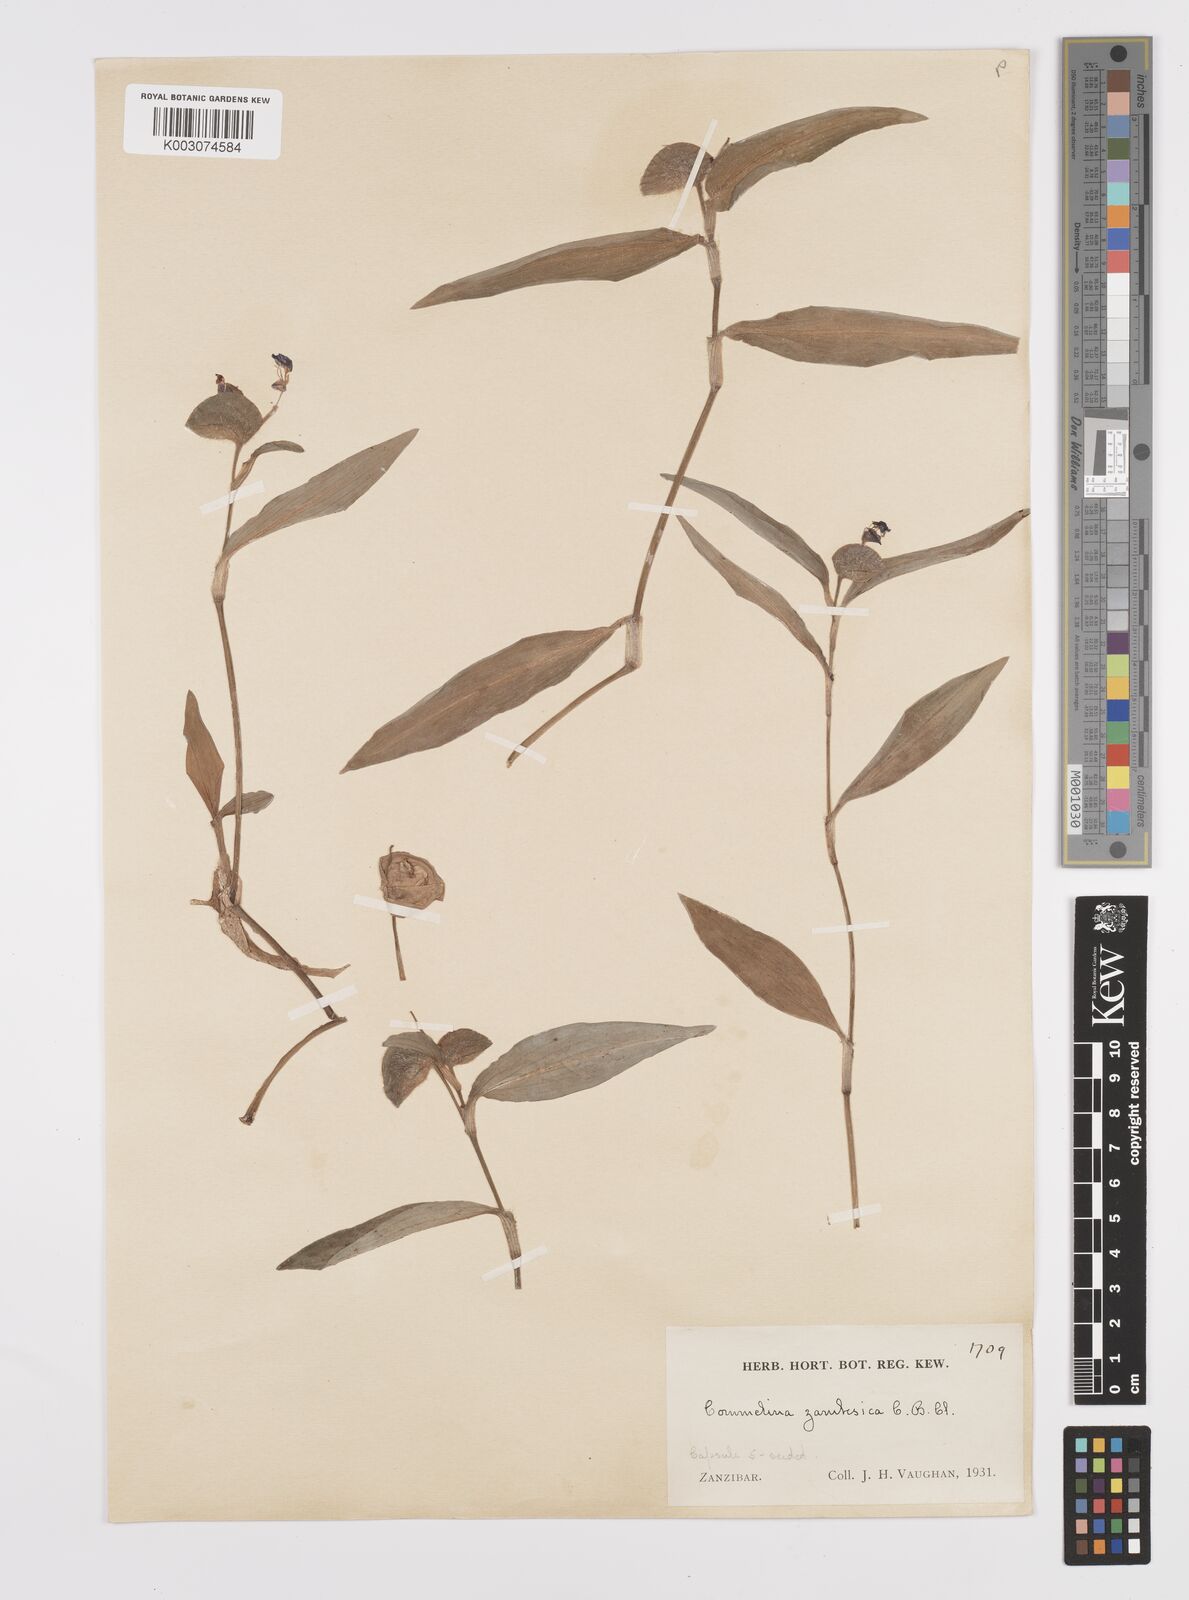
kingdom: Plantae
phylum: Tracheophyta
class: Liliopsida
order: Commelinales
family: Commelinaceae
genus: Commelina
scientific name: Commelina zambesica
